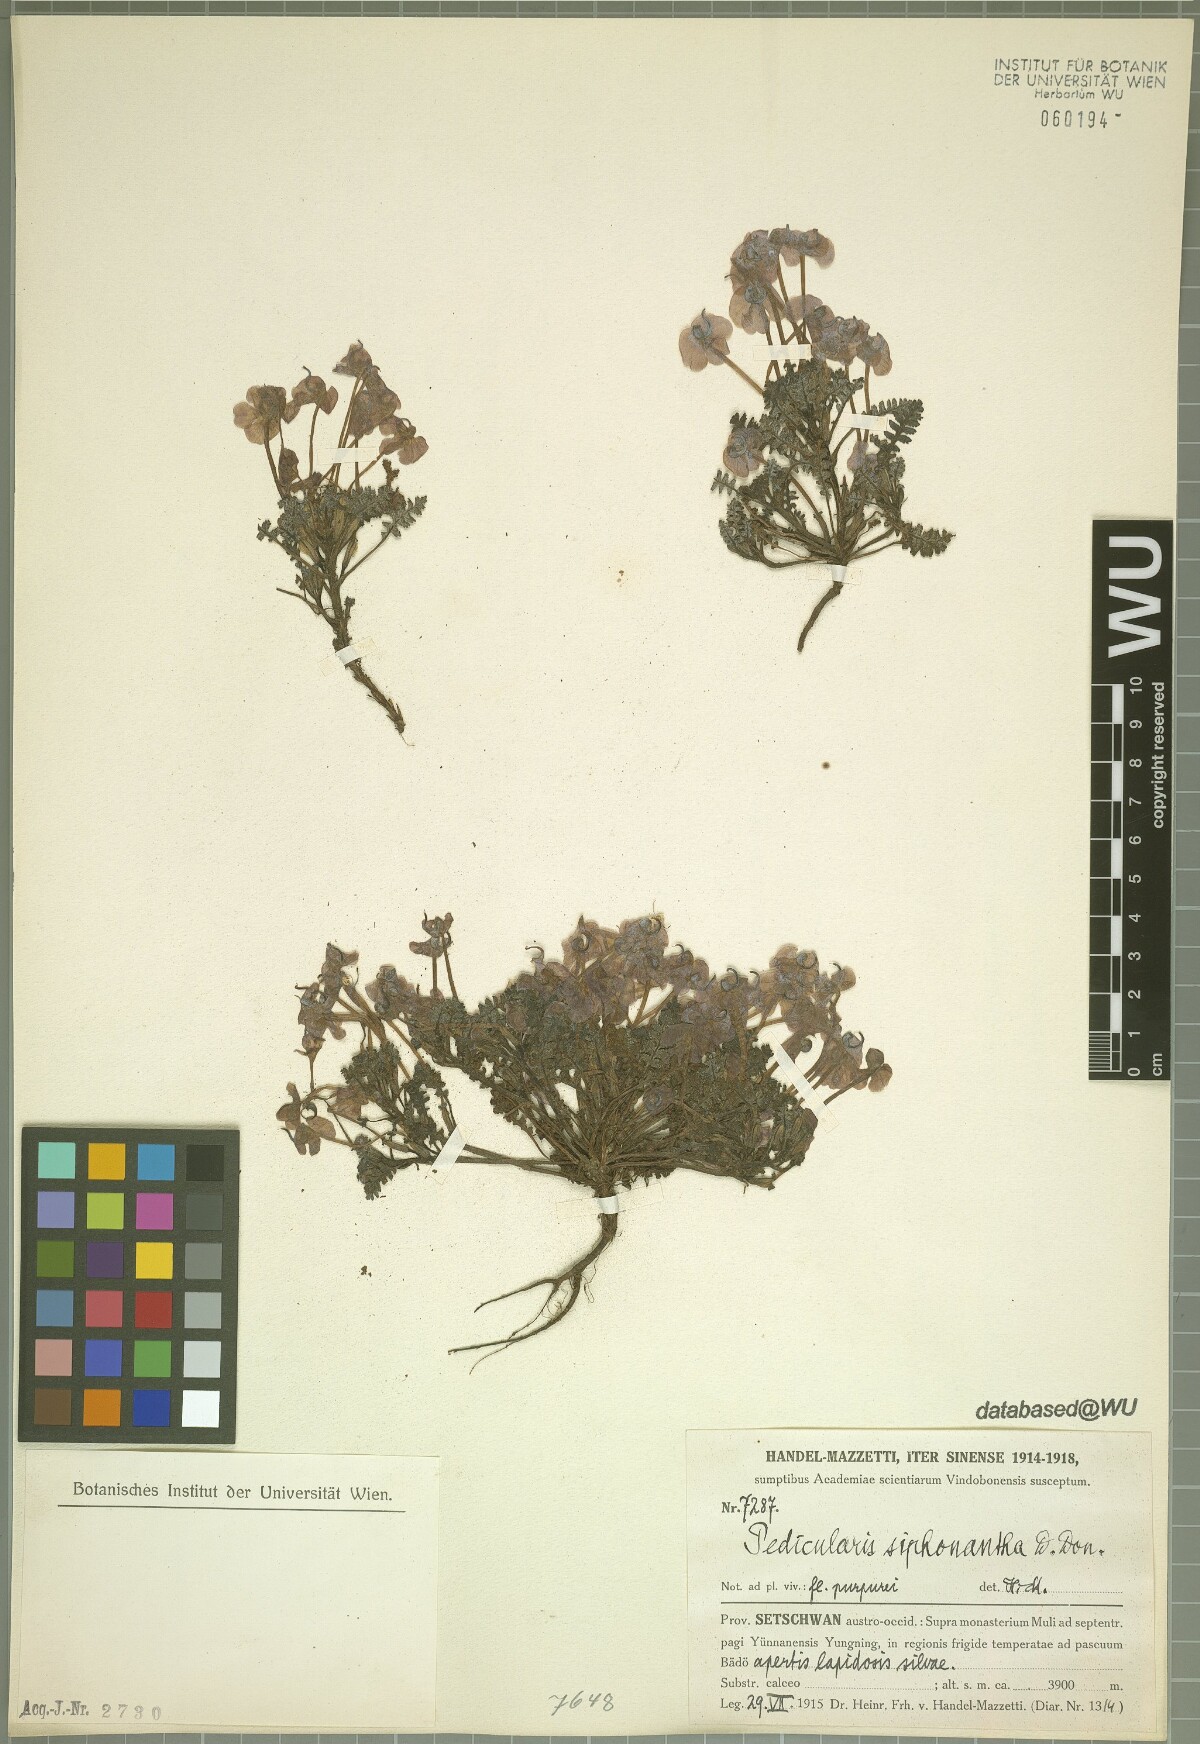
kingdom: Plantae
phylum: Tracheophyta
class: Magnoliopsida
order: Lamiales
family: Orobanchaceae
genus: Pedicularis
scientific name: Pedicularis siphonantha
